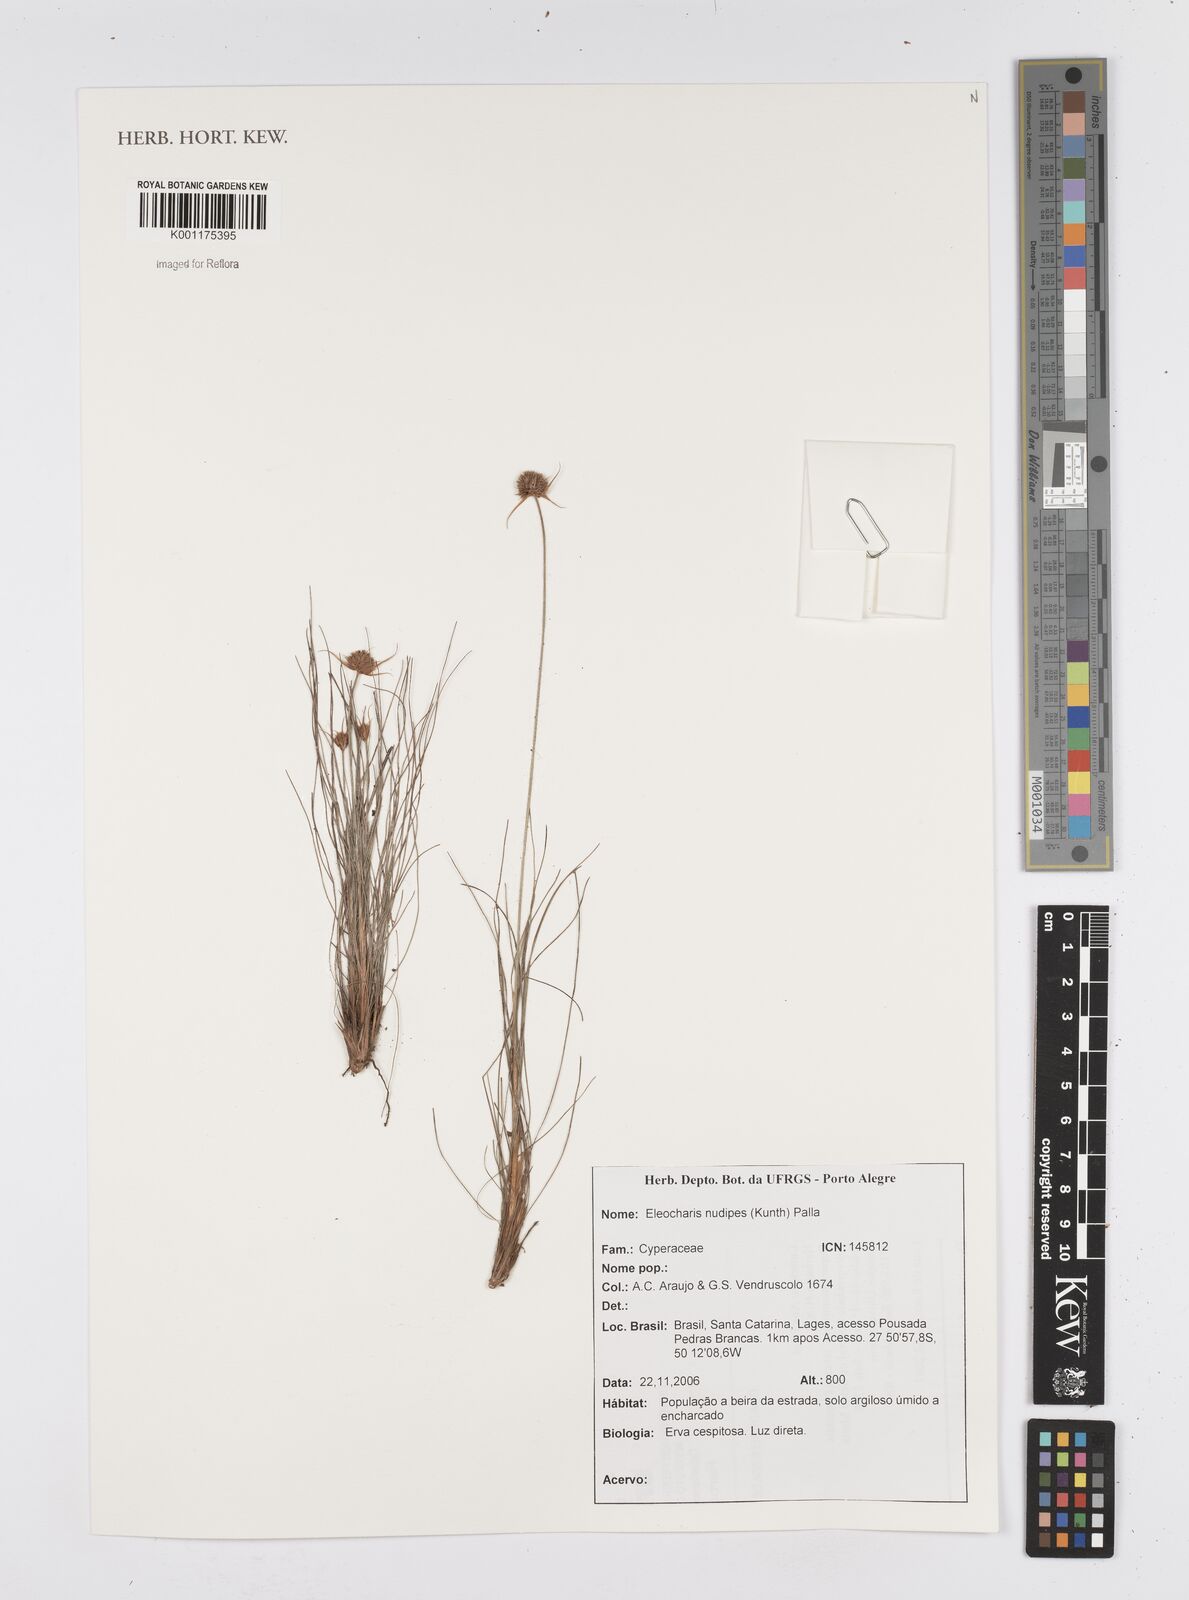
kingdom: Plantae
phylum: Tracheophyta
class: Liliopsida
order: Poales
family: Cyperaceae
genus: Eleocharis
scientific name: Eleocharis nudipes
